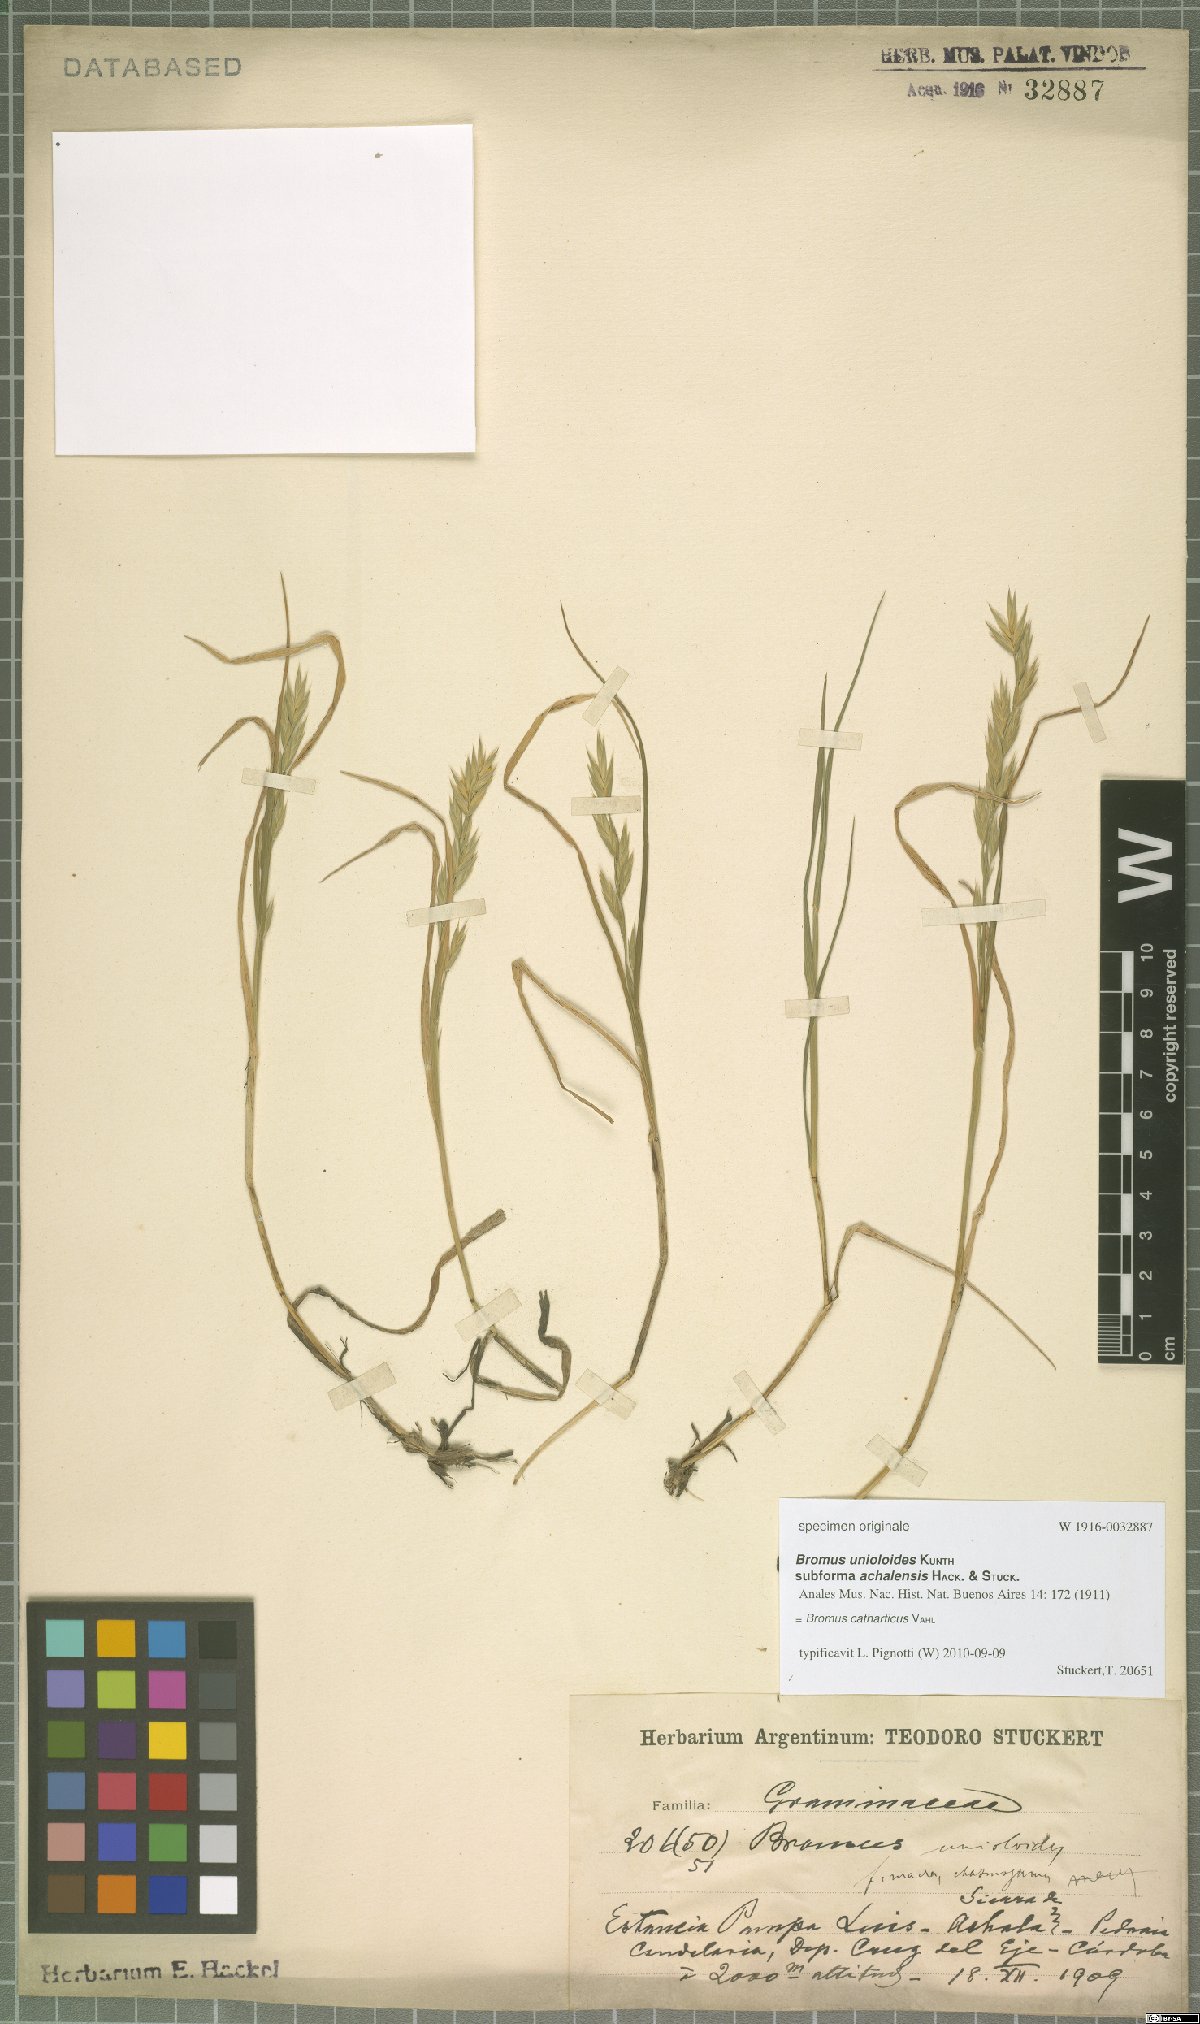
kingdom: Plantae
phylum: Tracheophyta
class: Liliopsida
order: Poales
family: Poaceae
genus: Bromus
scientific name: Bromus catharticus
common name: Rescuegrass
